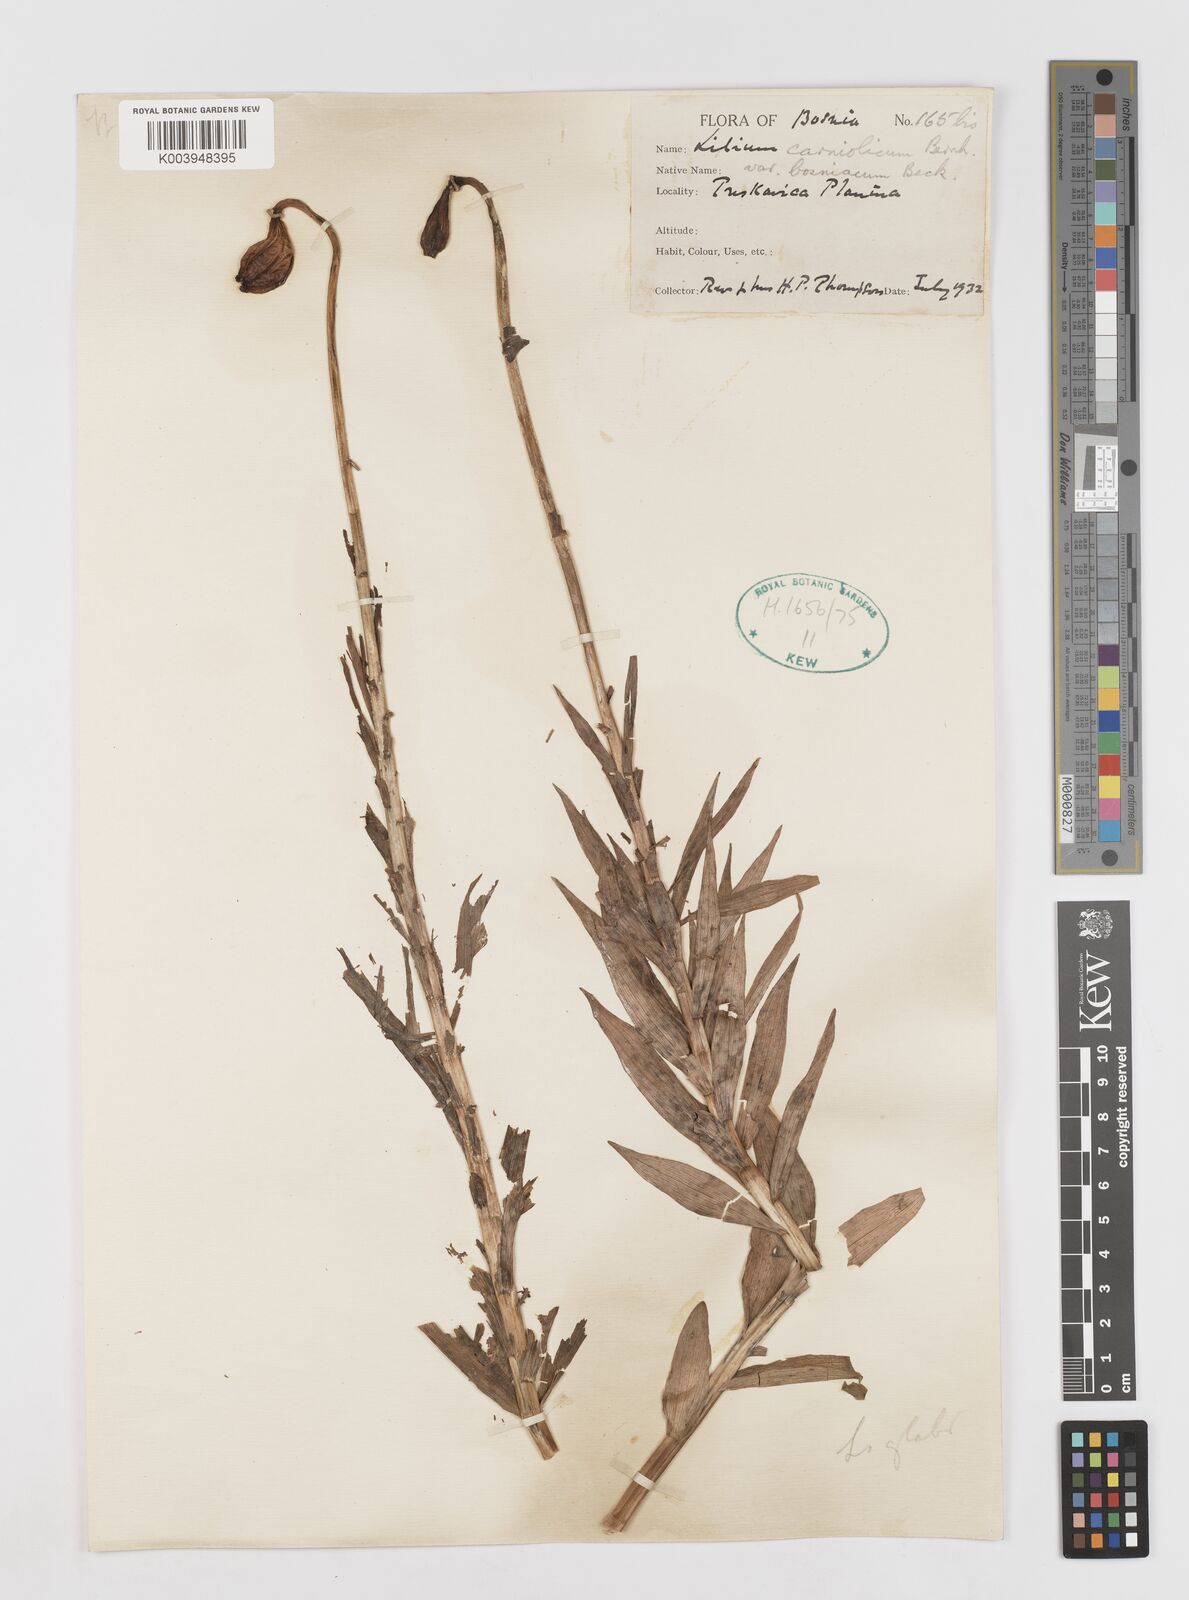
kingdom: Plantae
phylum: Tracheophyta
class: Liliopsida
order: Liliales
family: Liliaceae
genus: Lilium
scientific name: Lilium bosniacum
